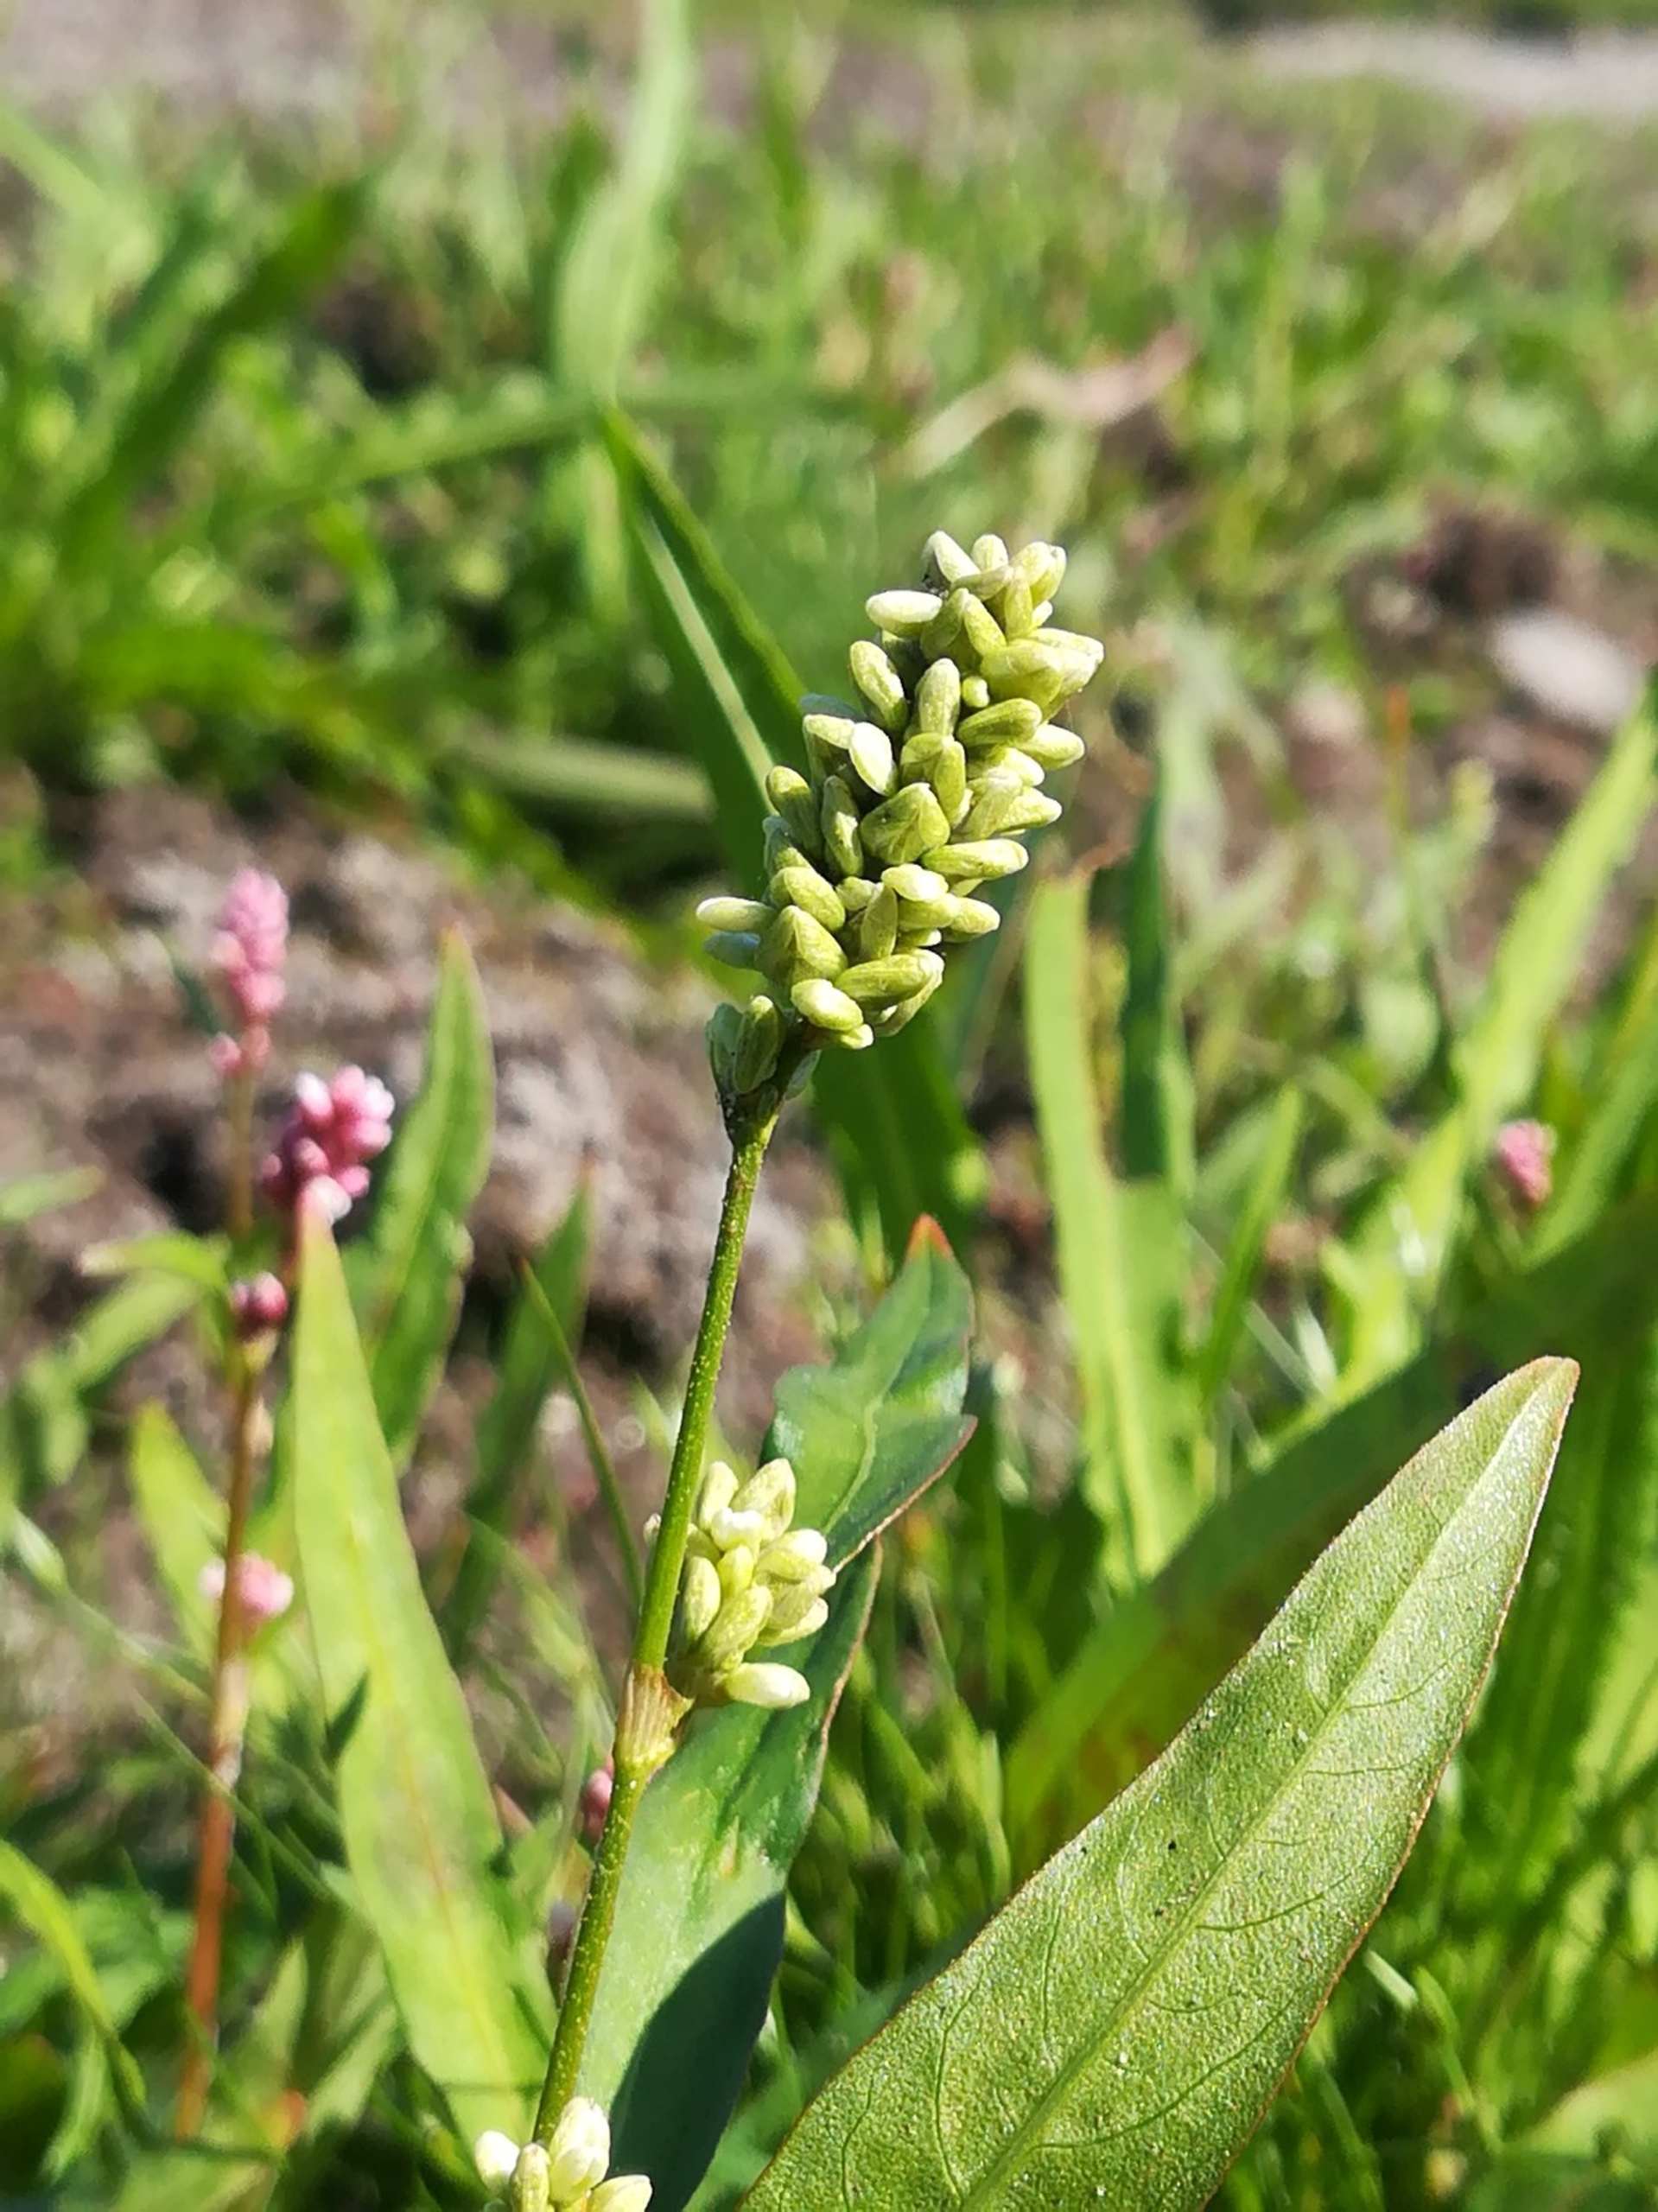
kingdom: Plantae
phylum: Tracheophyta
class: Magnoliopsida
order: Caryophyllales
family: Polygonaceae
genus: Persicaria
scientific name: Persicaria lapathifolia
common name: Bleg pileurt
